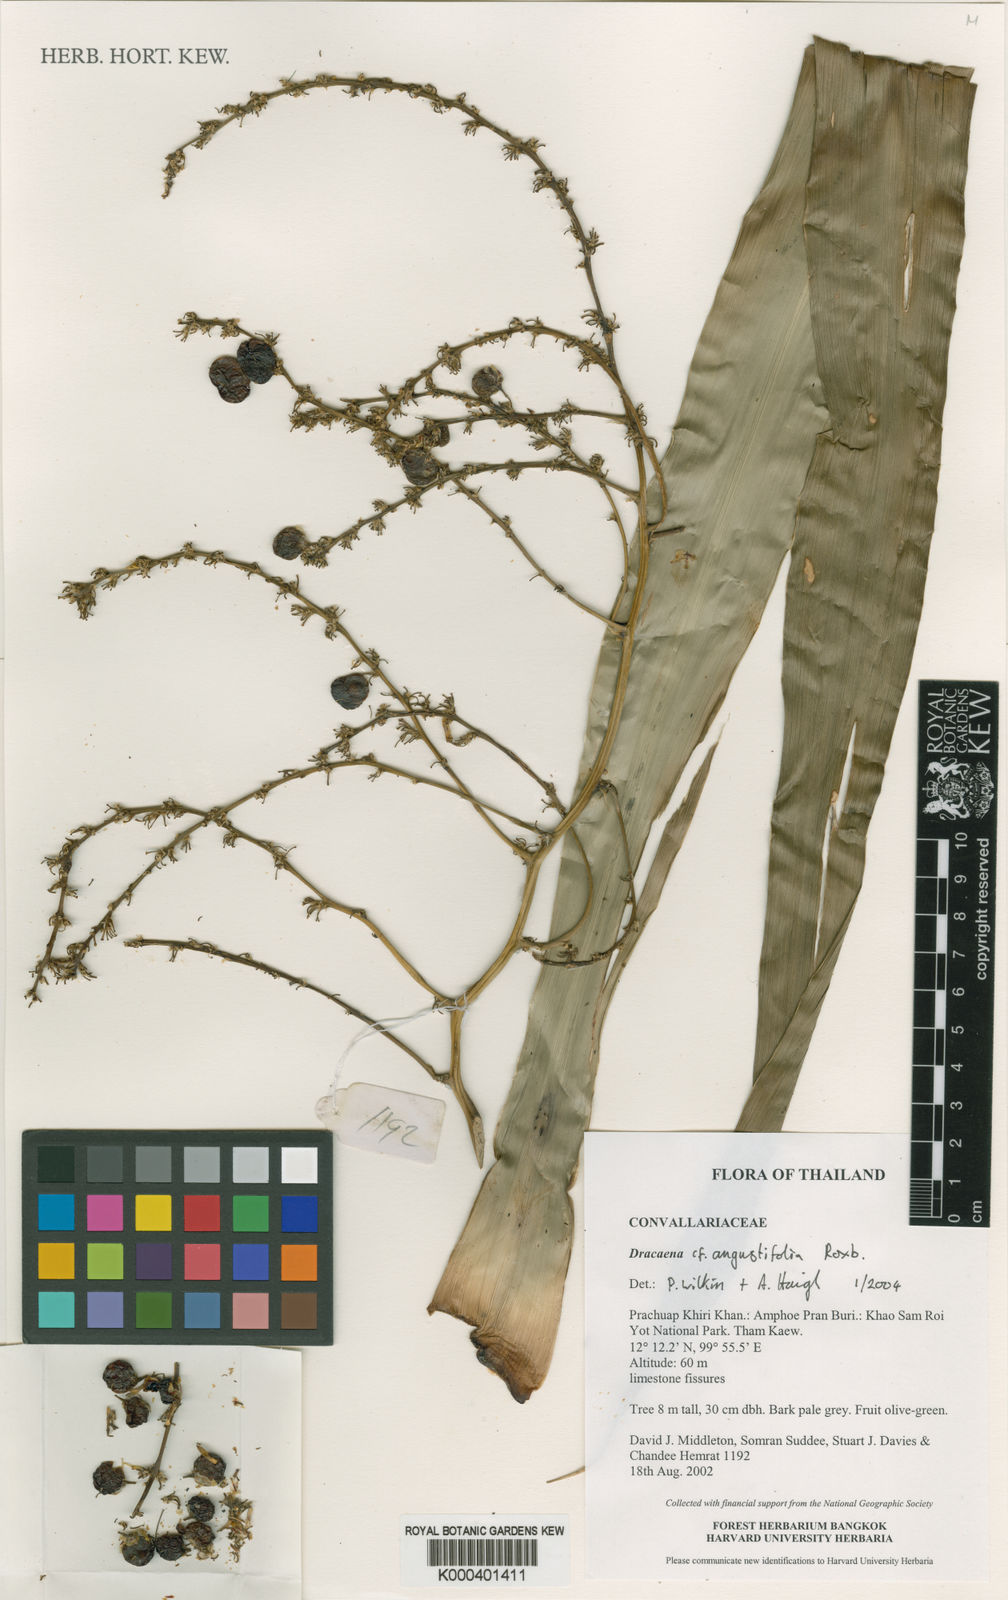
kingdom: Plantae
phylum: Tracheophyta
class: Liliopsida
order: Asparagales
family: Asparagaceae
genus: Dracaena
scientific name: Dracaena angustifolia
